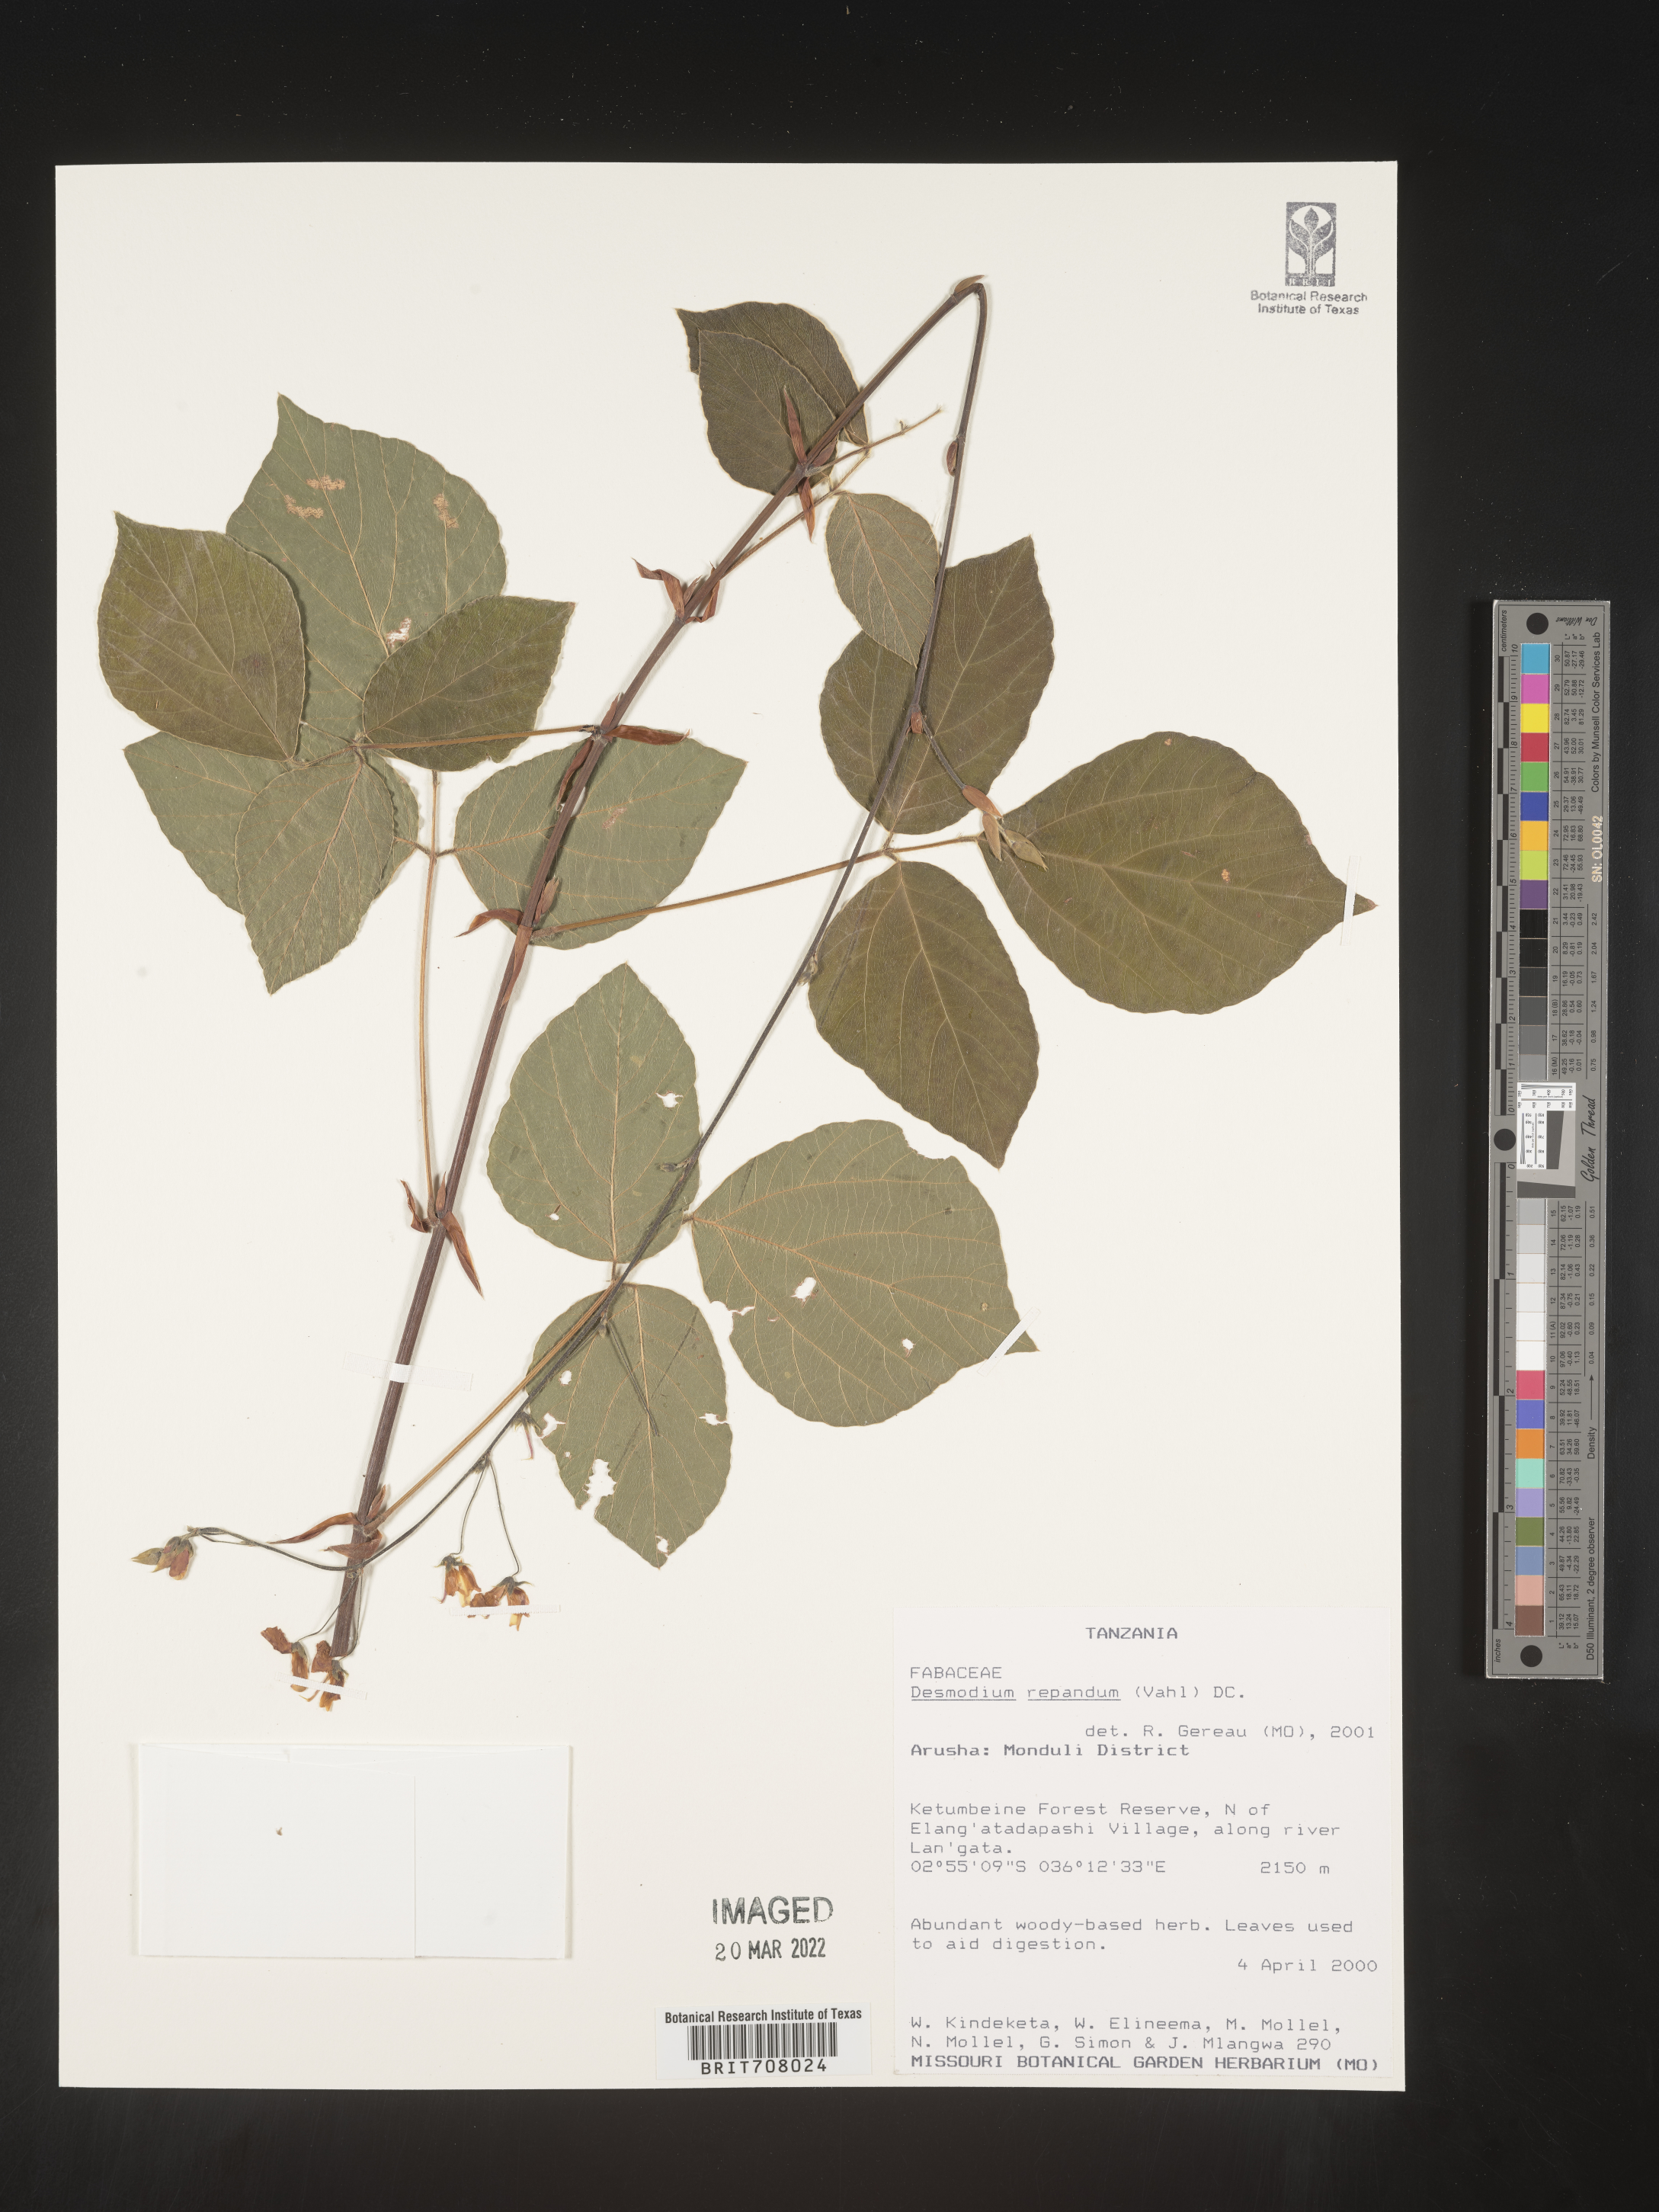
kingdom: Plantae
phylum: Tracheophyta
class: Magnoliopsida
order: Fabales
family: Fabaceae
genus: Desmodium
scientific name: Desmodium
